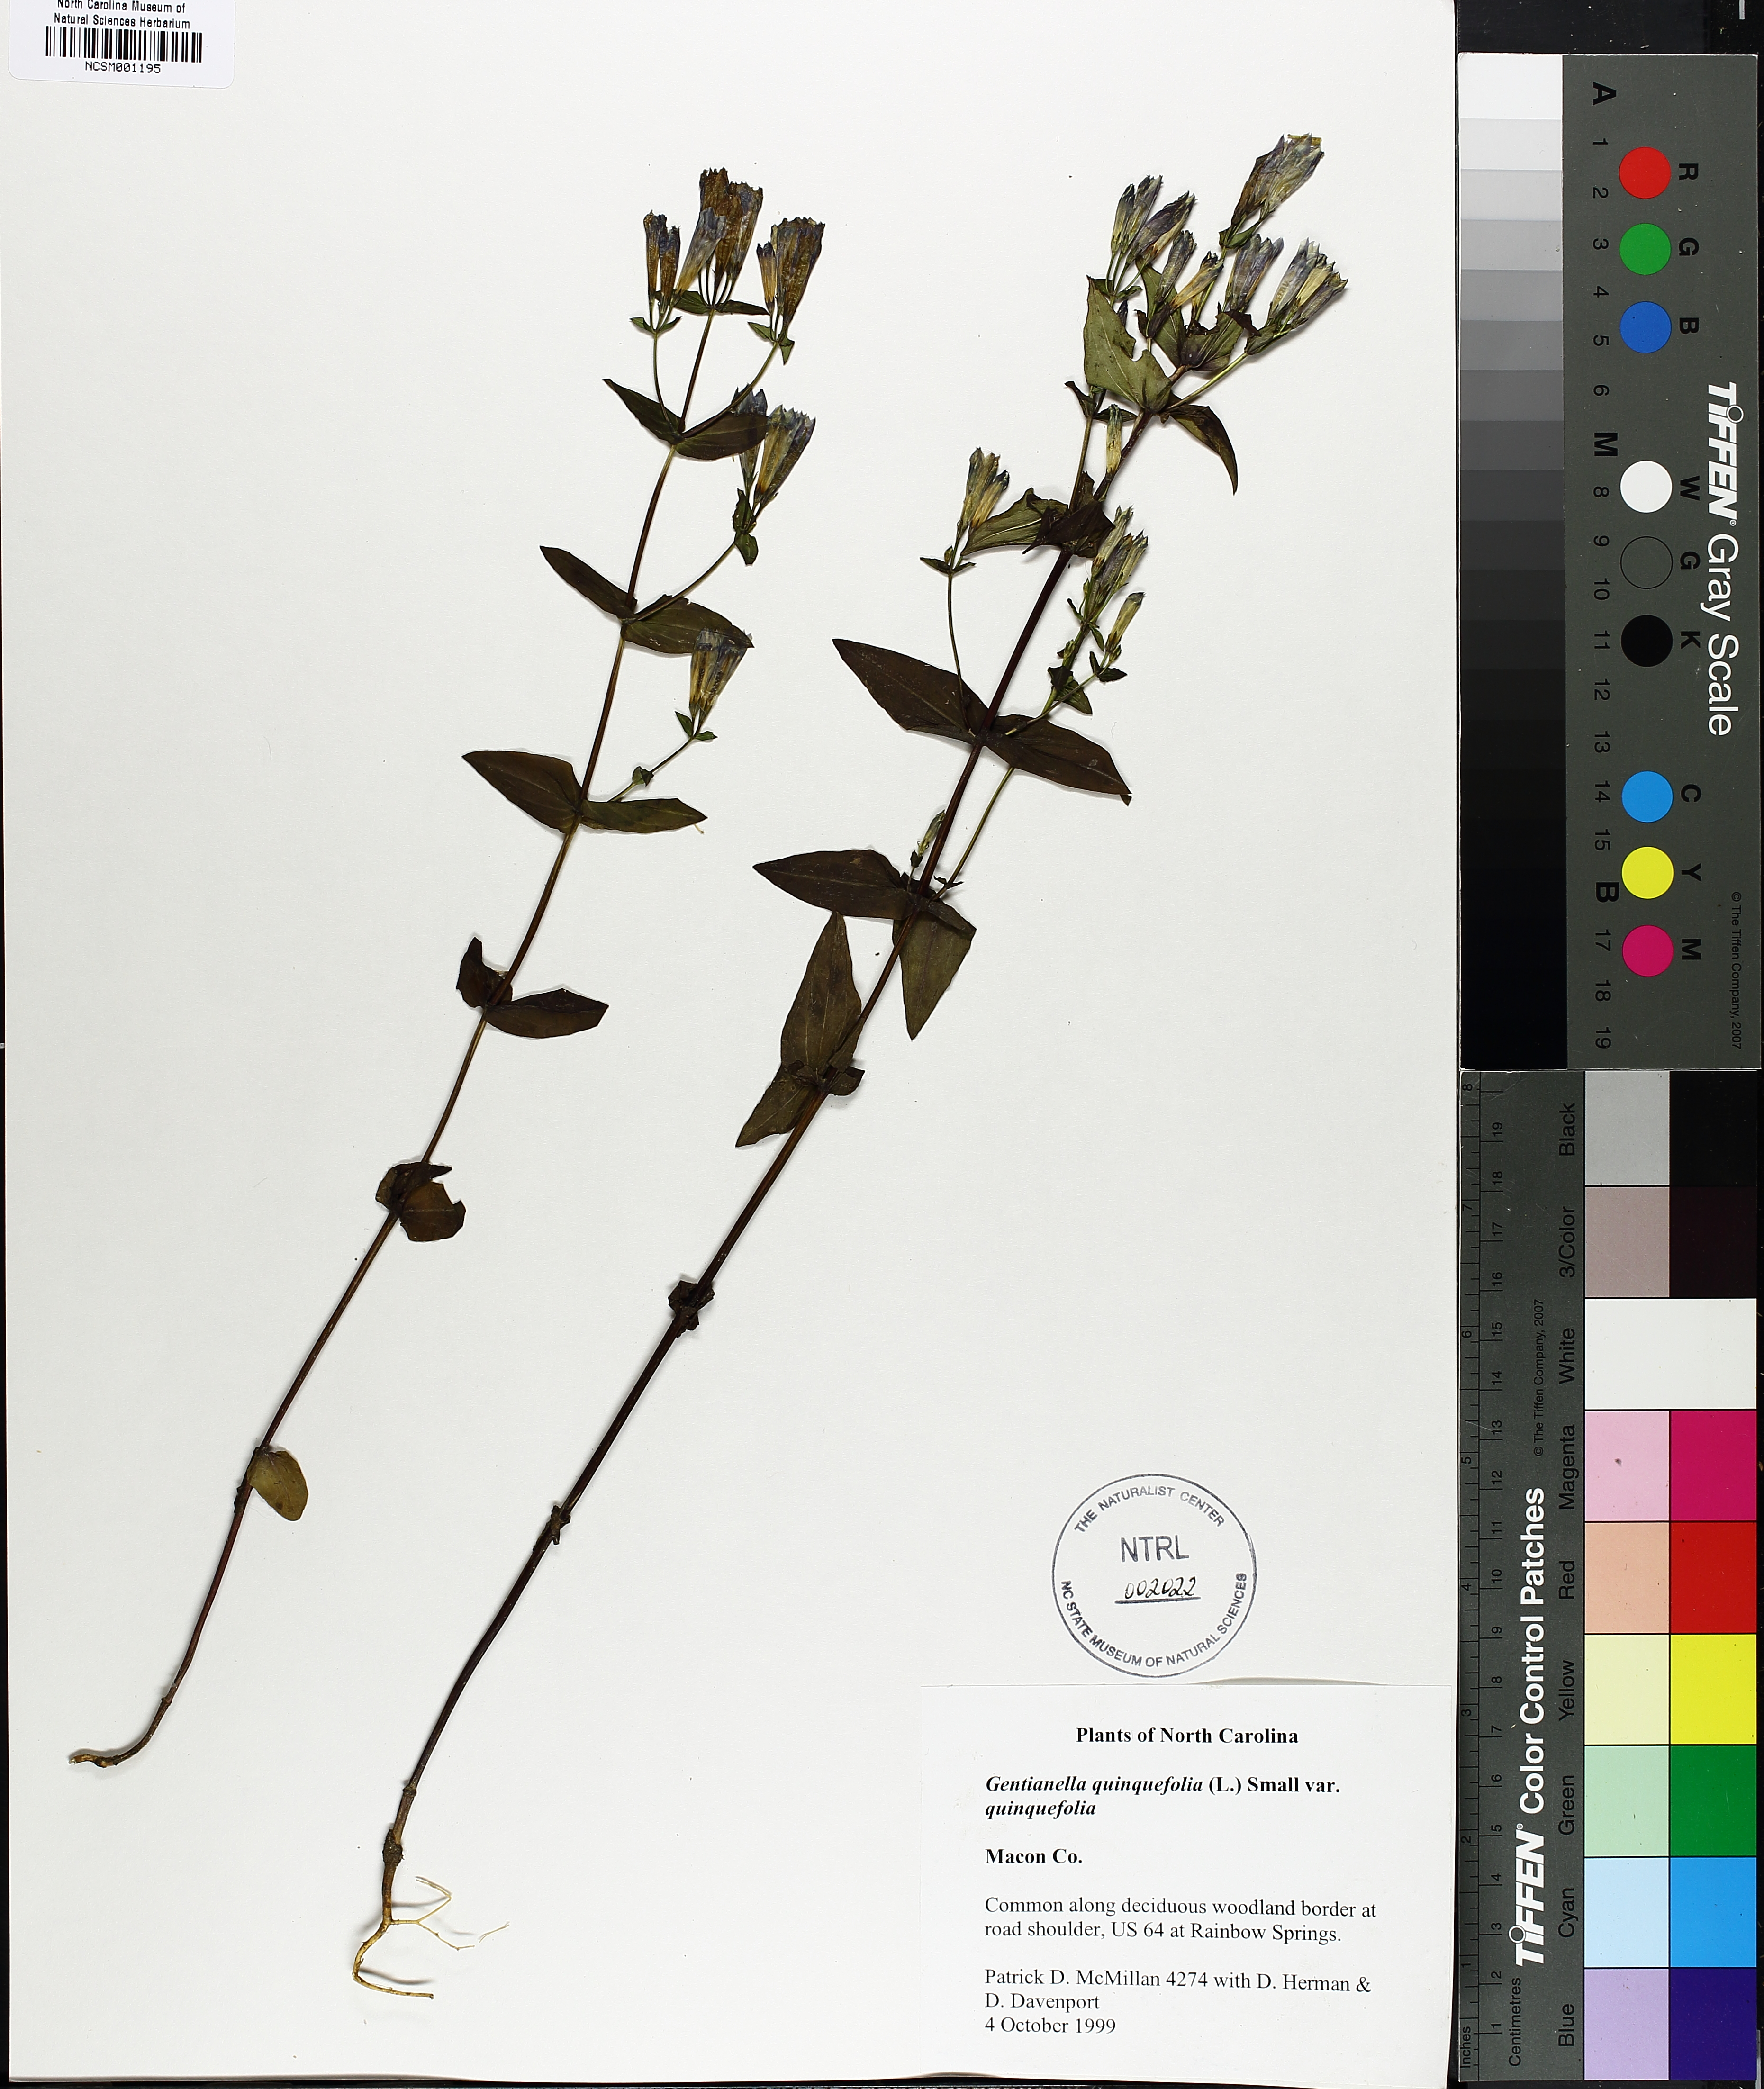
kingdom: Plantae
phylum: Tracheophyta
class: Magnoliopsida
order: Gentianales
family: Gentianaceae
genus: Gentianella
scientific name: Gentianella quinquefolia
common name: Agueweed
